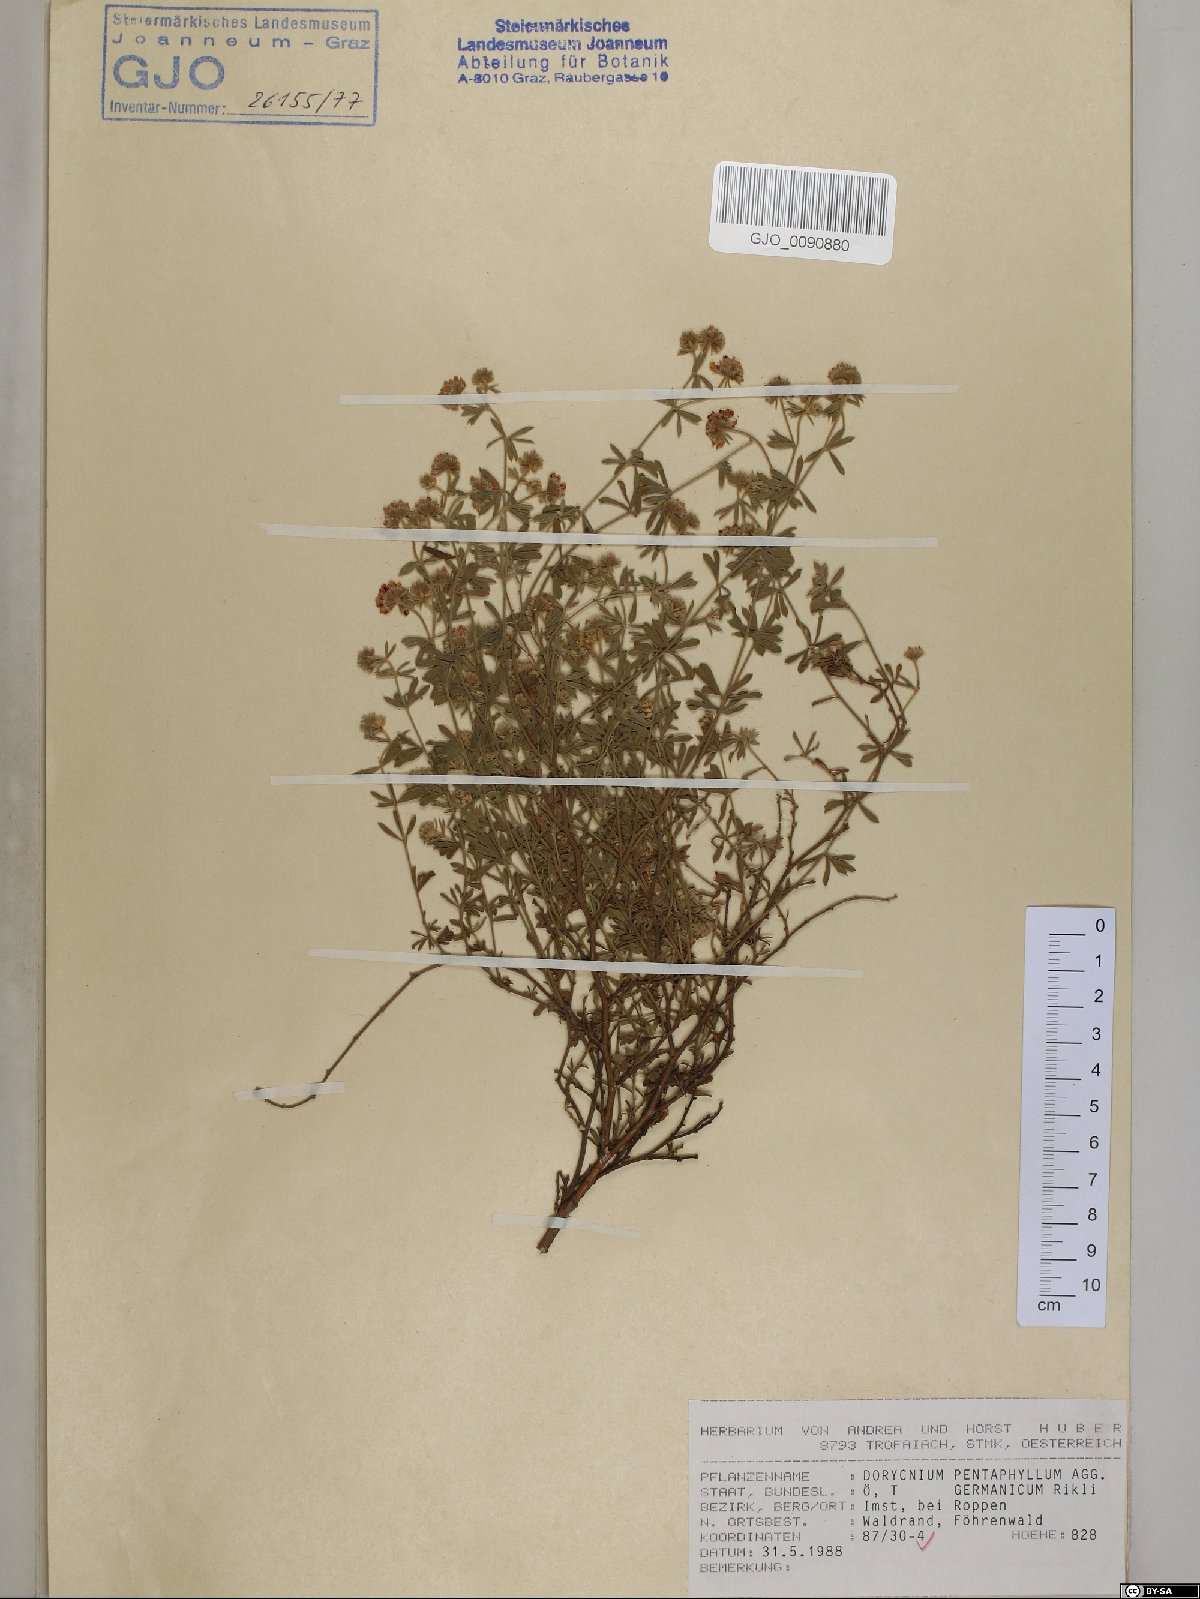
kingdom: Plantae
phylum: Tracheophyta
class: Magnoliopsida
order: Fabales
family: Fabaceae
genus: Lotus
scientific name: Lotus germanicus
